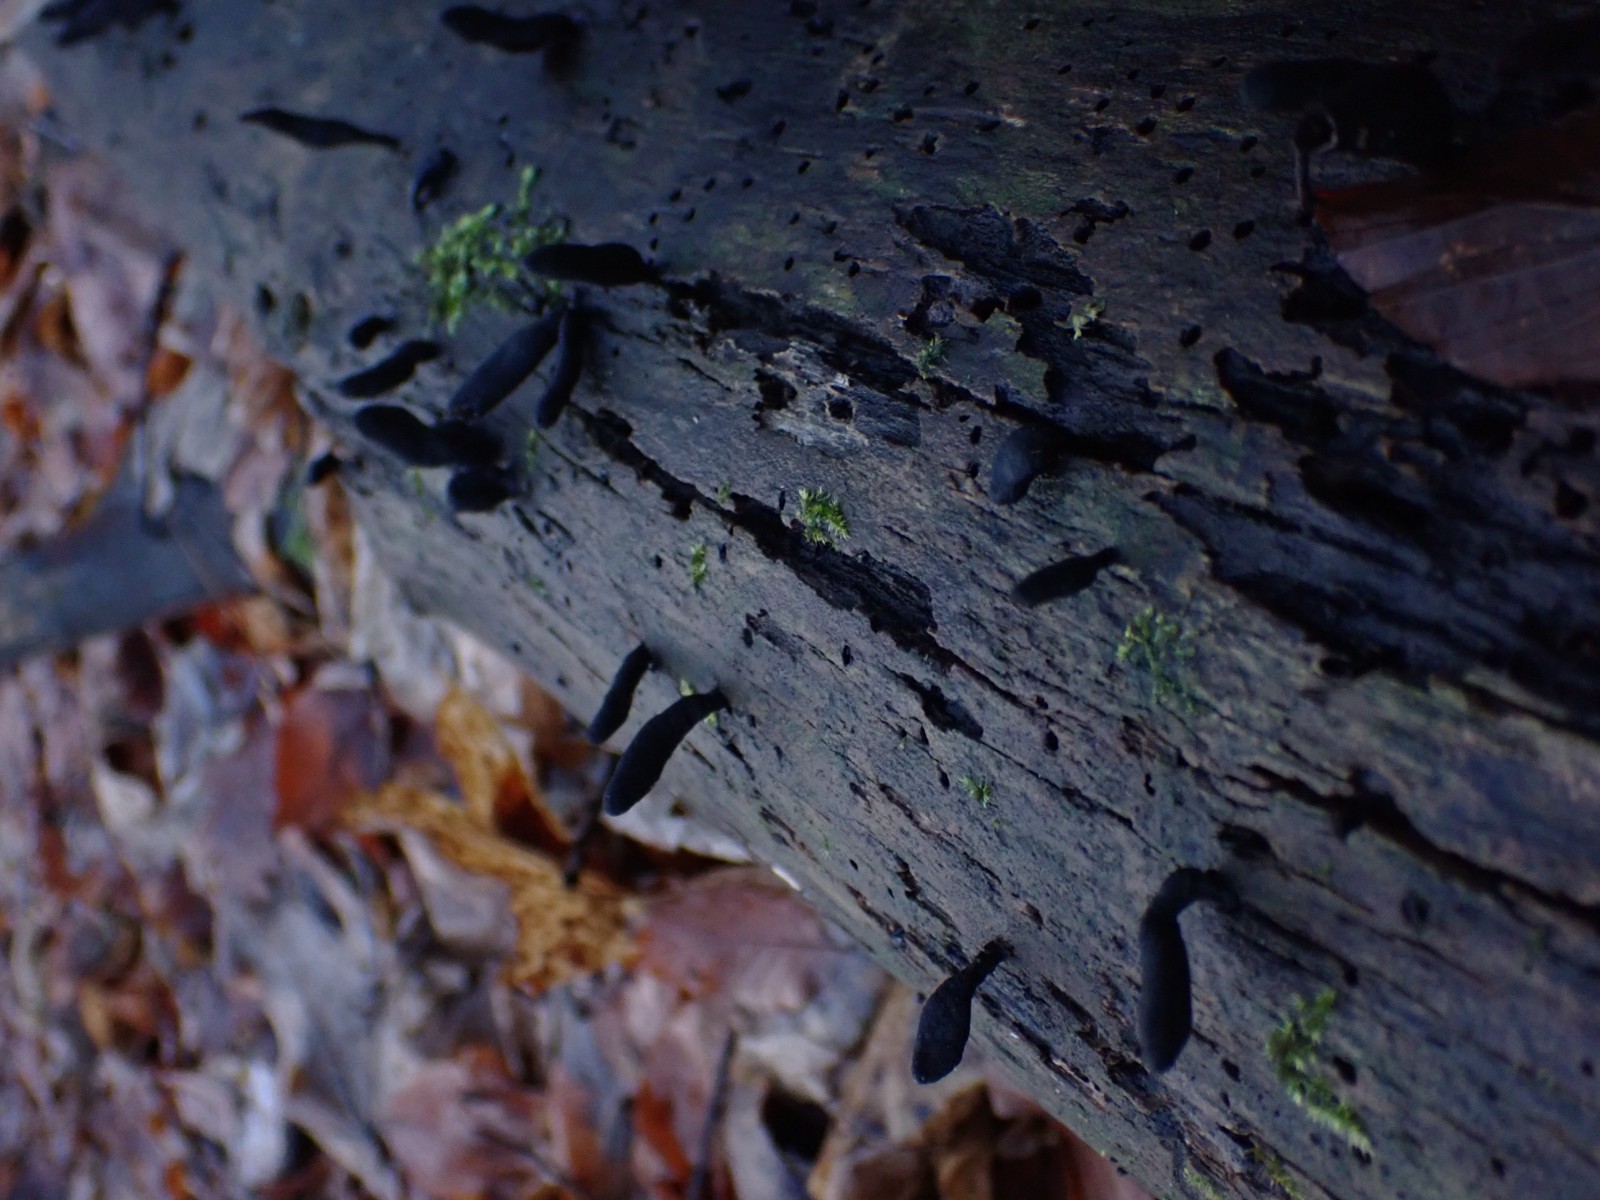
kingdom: Fungi
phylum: Ascomycota
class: Sordariomycetes
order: Xylariales
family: Xylariaceae
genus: Xylaria
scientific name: Xylaria longipes
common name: slank stødsvamp
